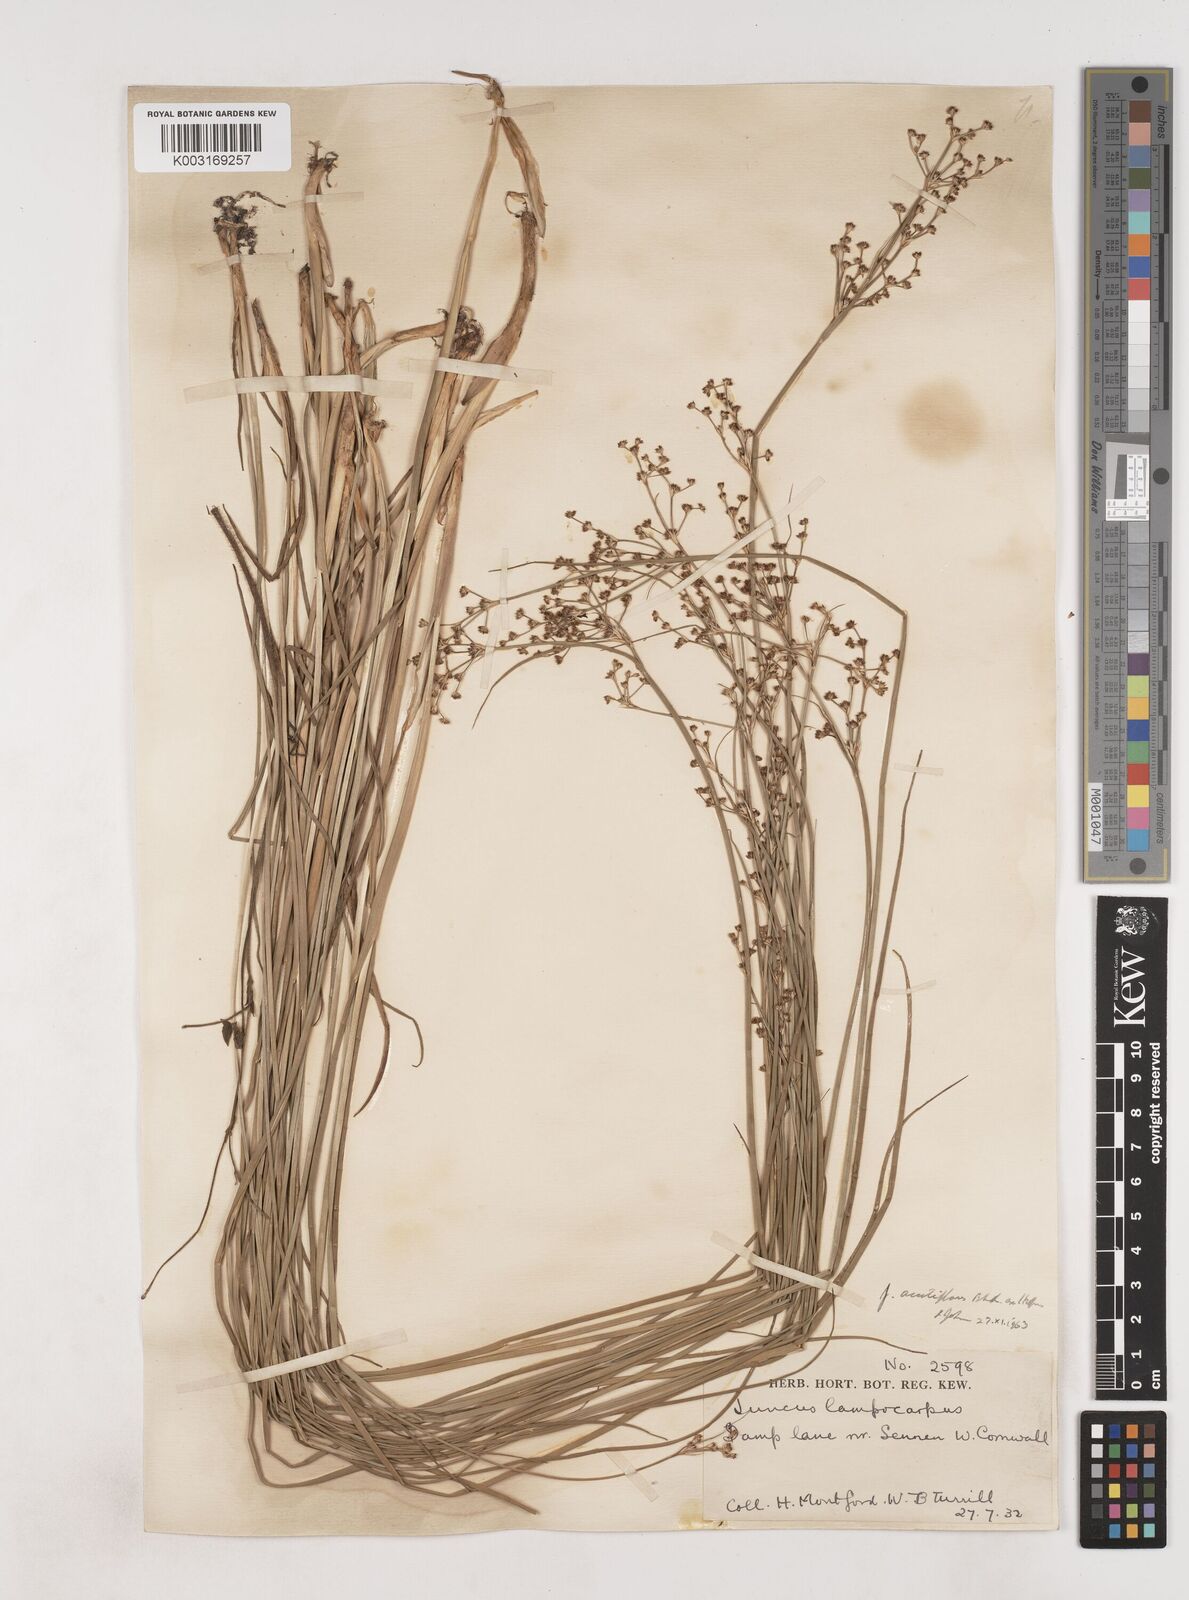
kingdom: Plantae
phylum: Tracheophyta
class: Liliopsida
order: Poales
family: Juncaceae
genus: Juncus
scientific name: Juncus acutiflorus
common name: Sharp-flowered rush
